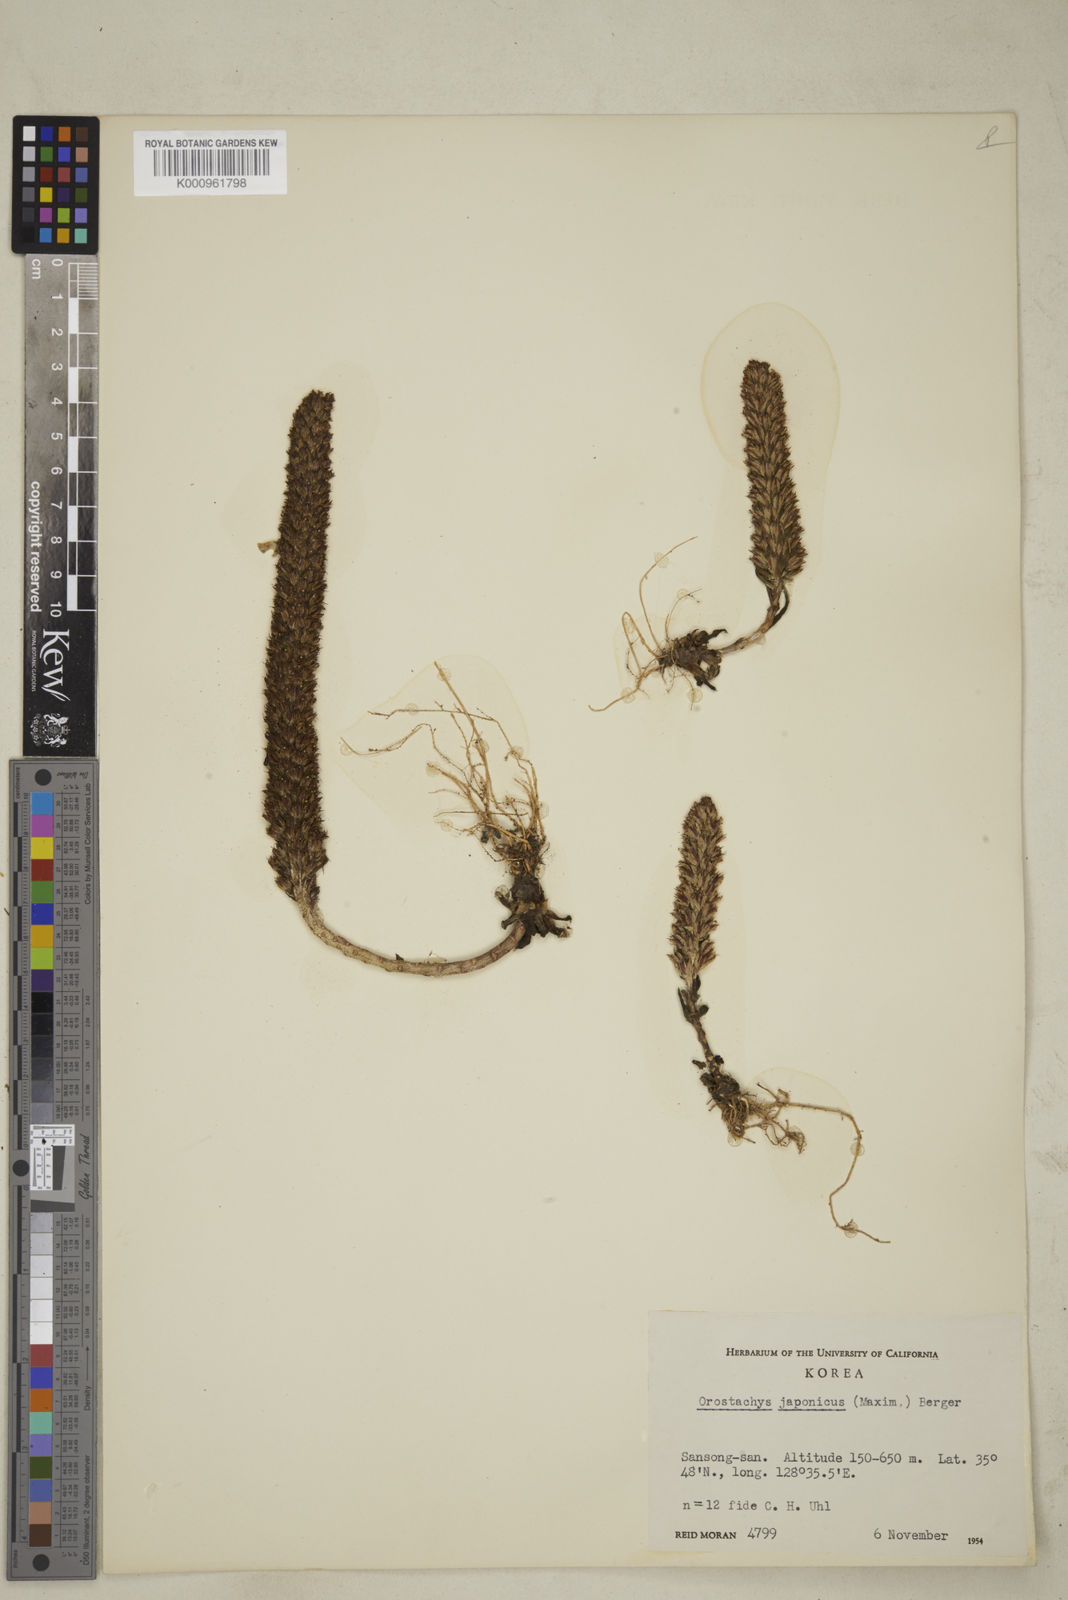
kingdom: Plantae
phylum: Tracheophyta
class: Magnoliopsida
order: Saxifragales
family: Crassulaceae
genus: Orostachys
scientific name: Orostachys japonica
